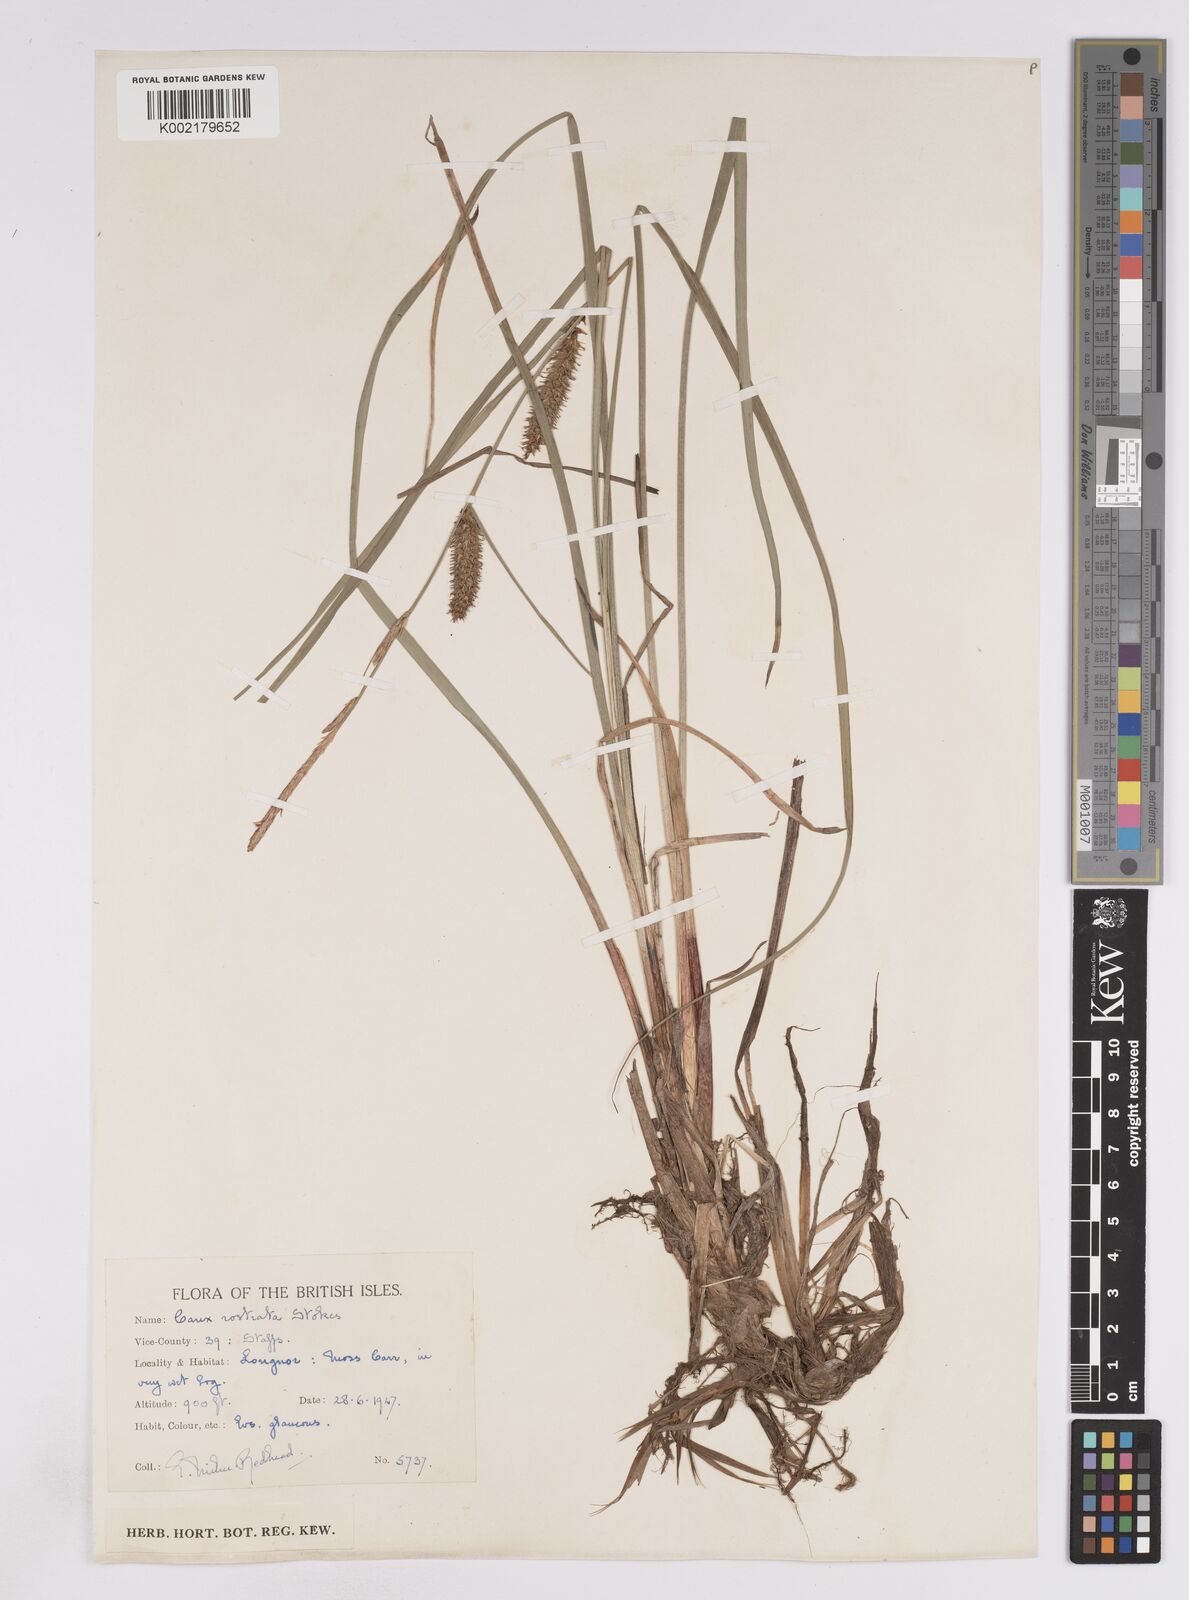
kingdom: Plantae
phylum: Tracheophyta
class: Liliopsida
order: Poales
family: Cyperaceae
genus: Carex
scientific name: Carex rostrata
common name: Bottle sedge
